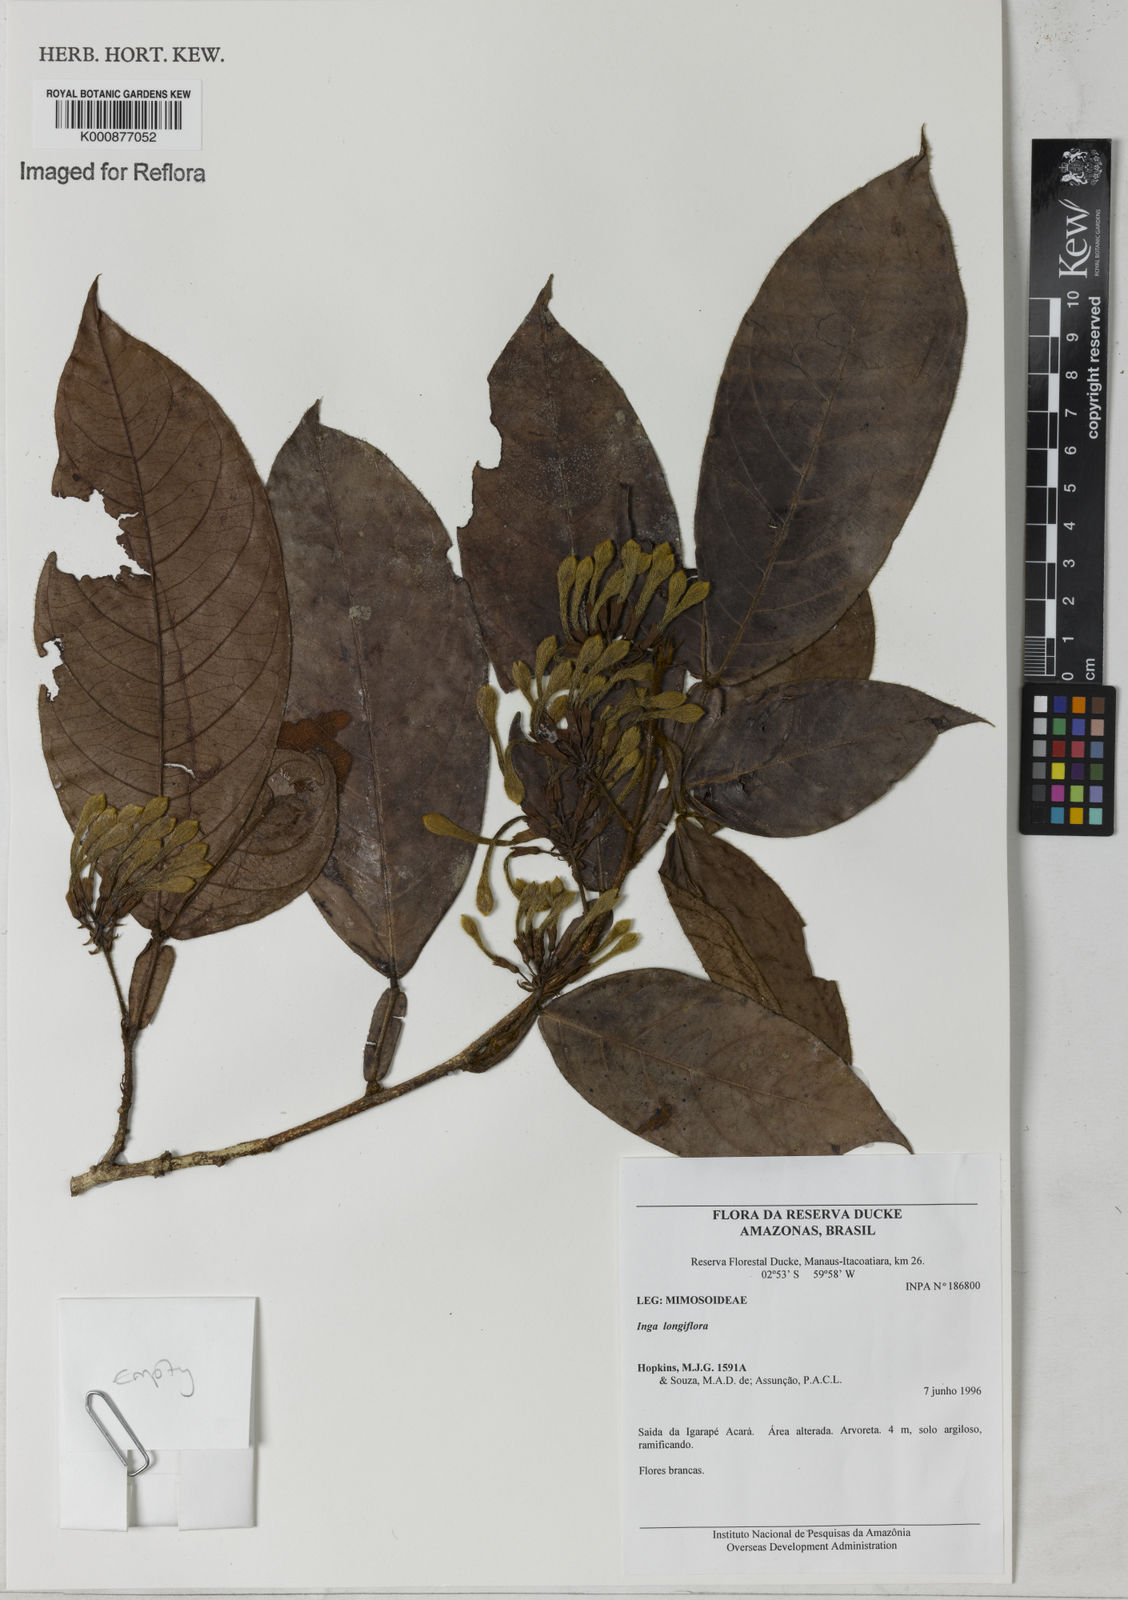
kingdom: Plantae
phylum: Tracheophyta
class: Magnoliopsida
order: Fabales
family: Fabaceae
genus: Inga
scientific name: Inga
